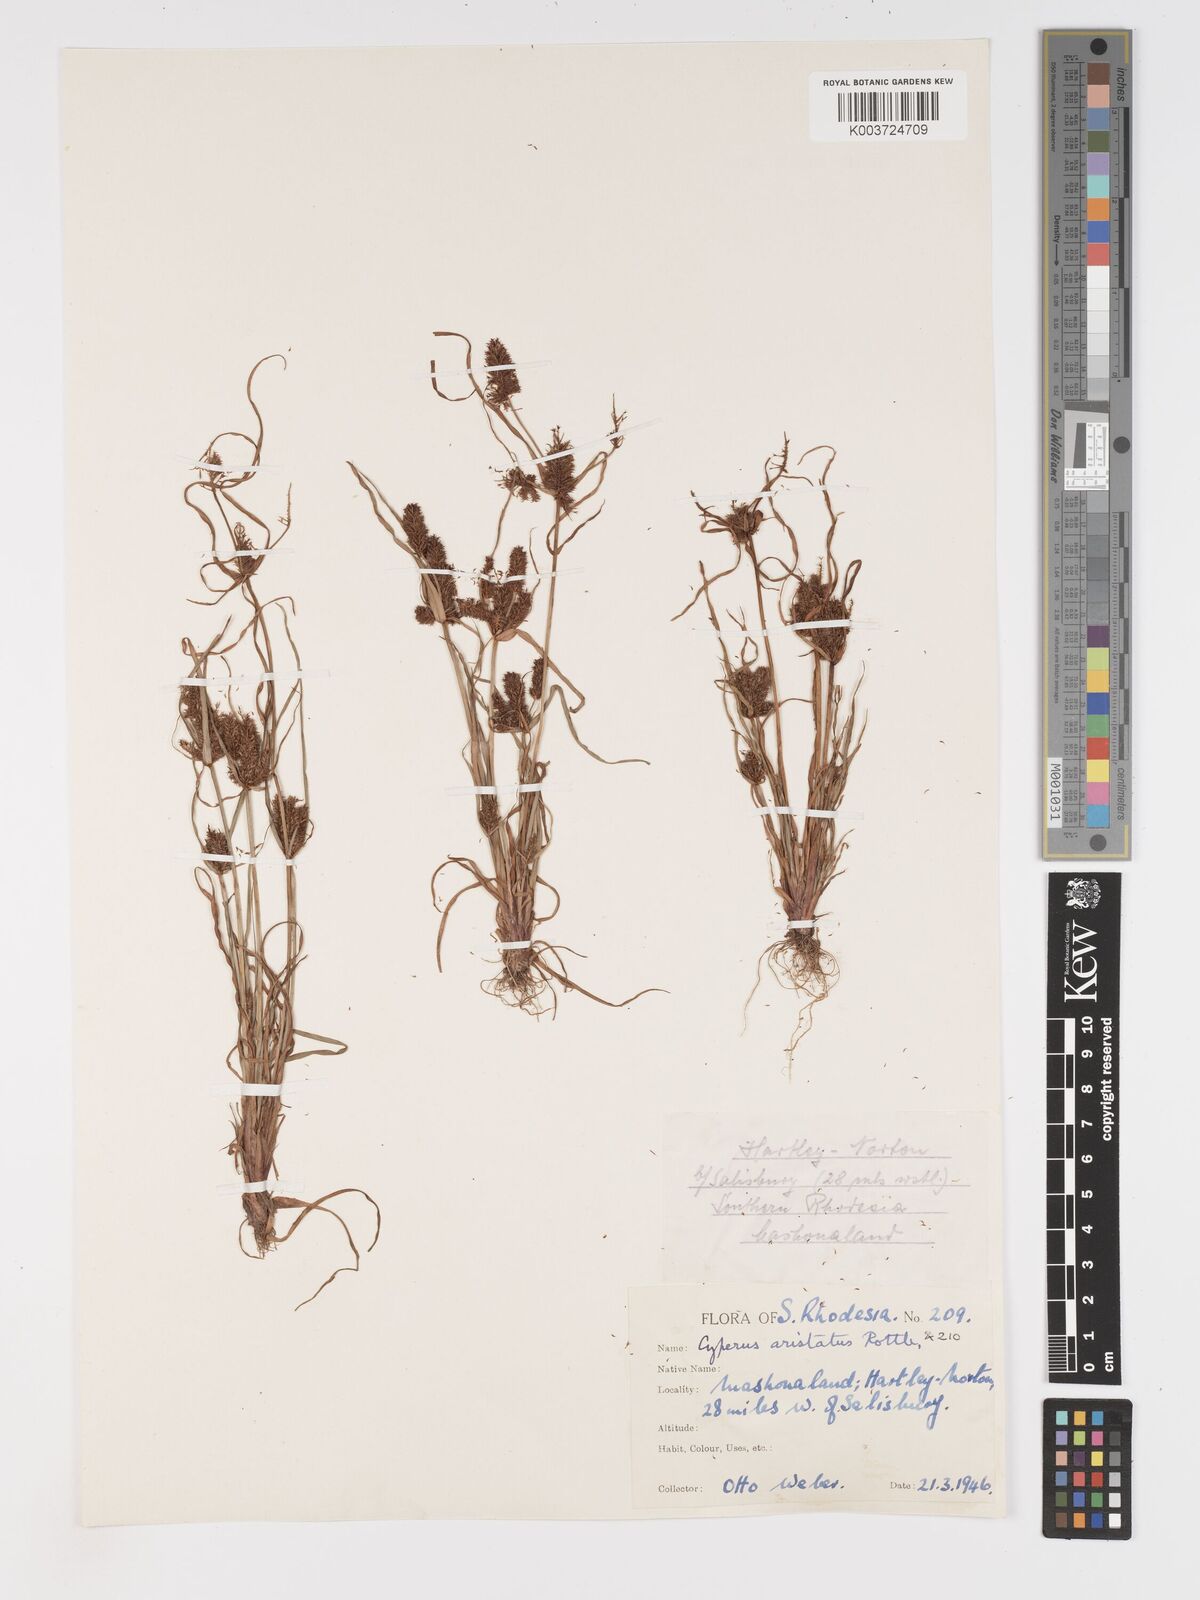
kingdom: Plantae
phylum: Tracheophyta
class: Liliopsida
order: Poales
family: Cyperaceae
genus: Cyperus
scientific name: Cyperus squarrosus
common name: Awned cyperus
